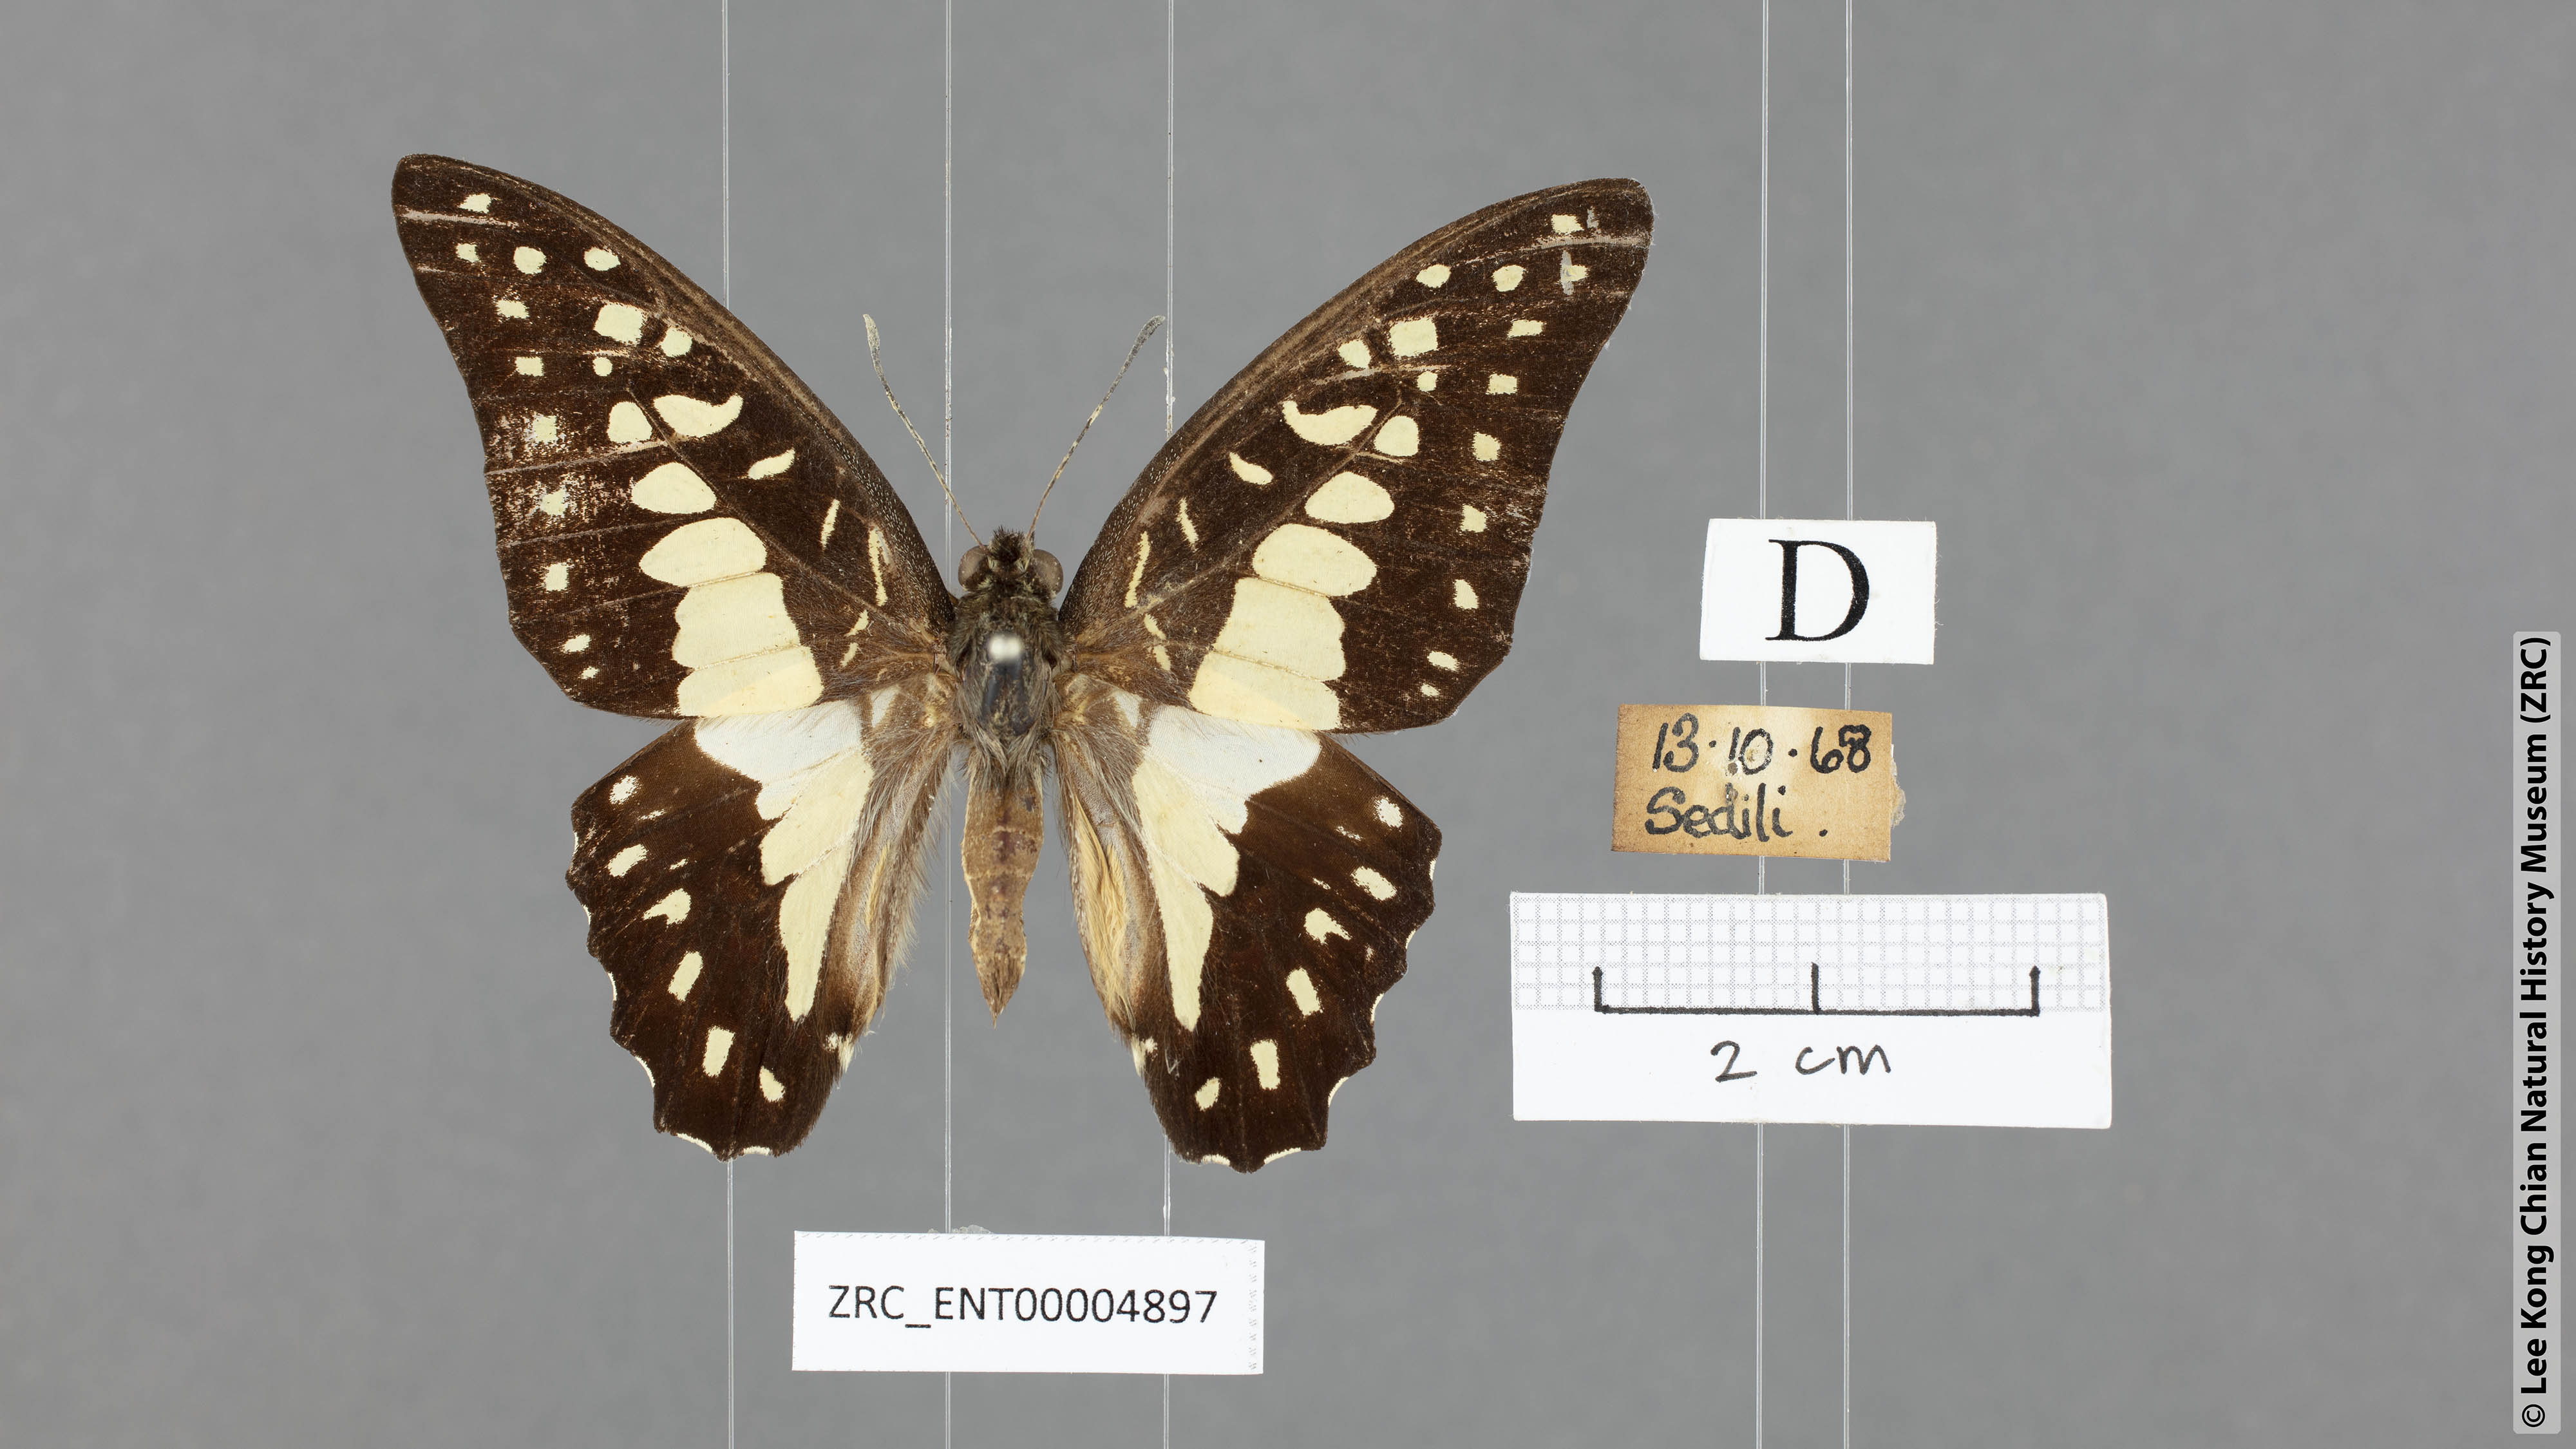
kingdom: Animalia
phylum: Arthropoda
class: Insecta
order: Lepidoptera
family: Papilionidae
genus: Graphium
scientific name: Graphium eurypylus
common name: Great jay
